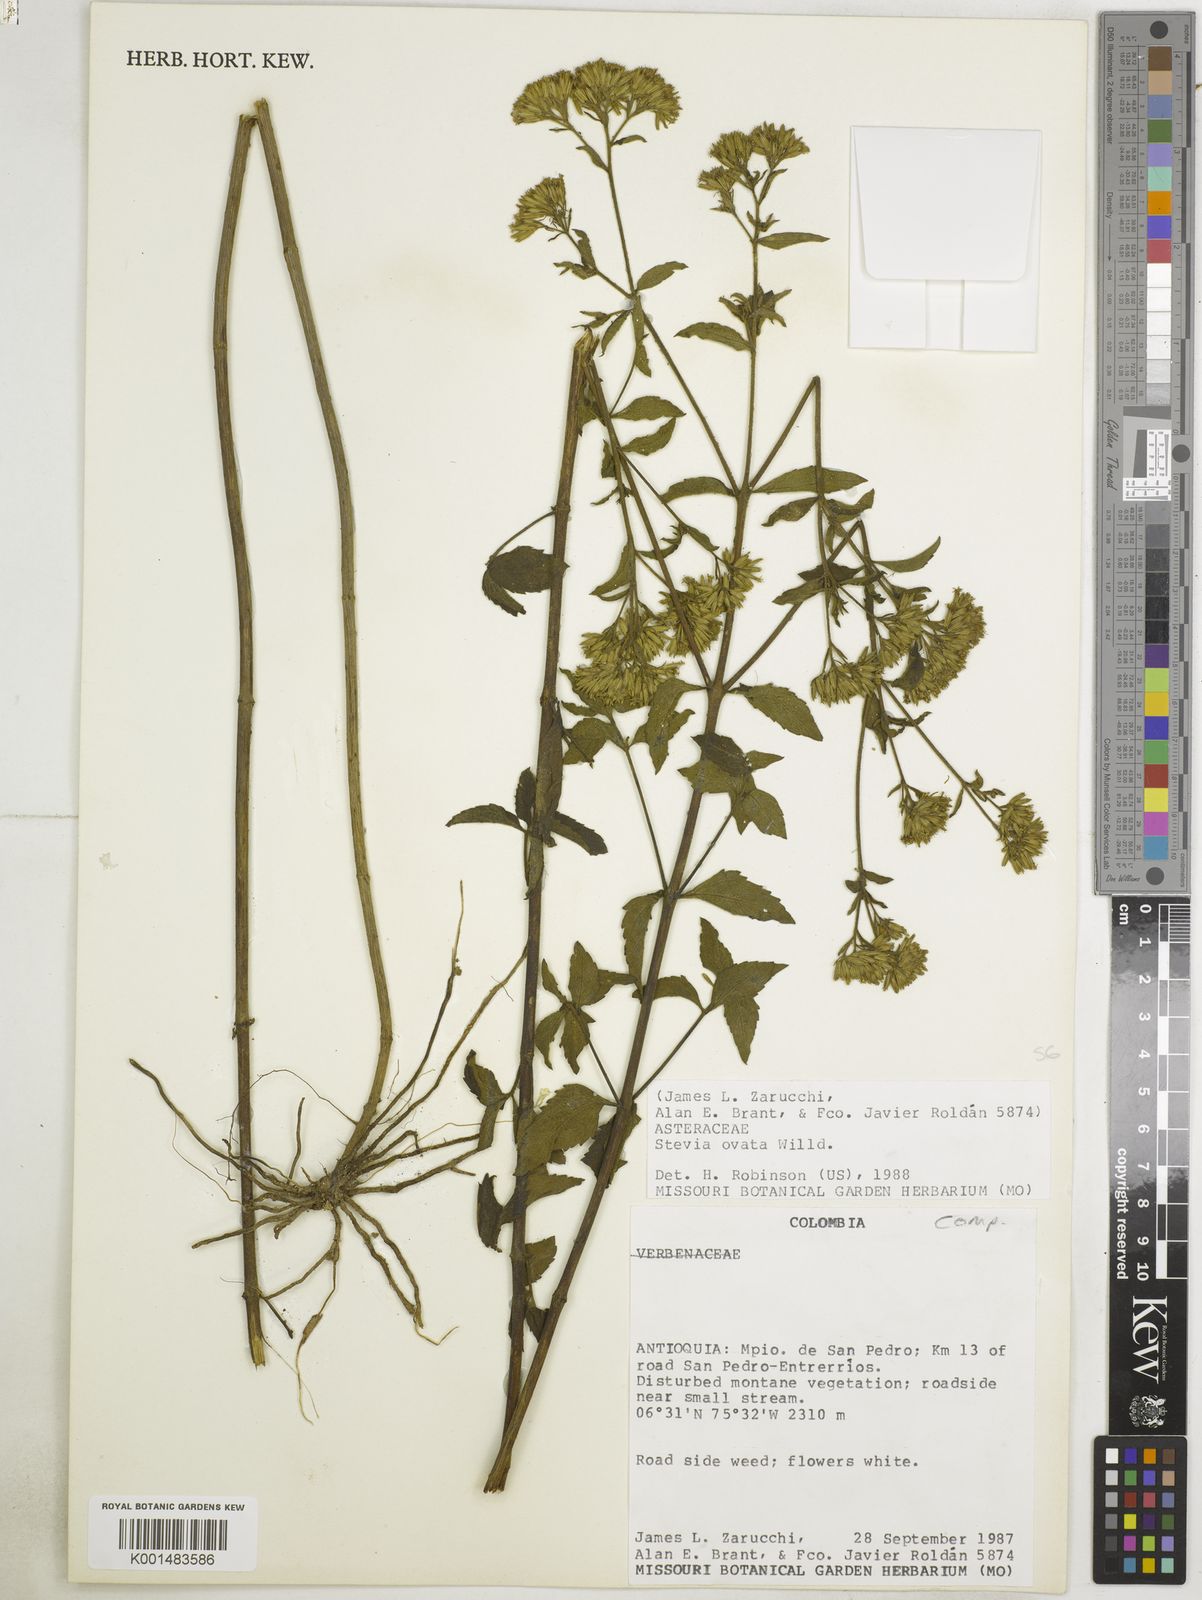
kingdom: Plantae
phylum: Tracheophyta
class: Magnoliopsida
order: Asterales
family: Asteraceae
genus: Stevia
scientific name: Stevia ovata
